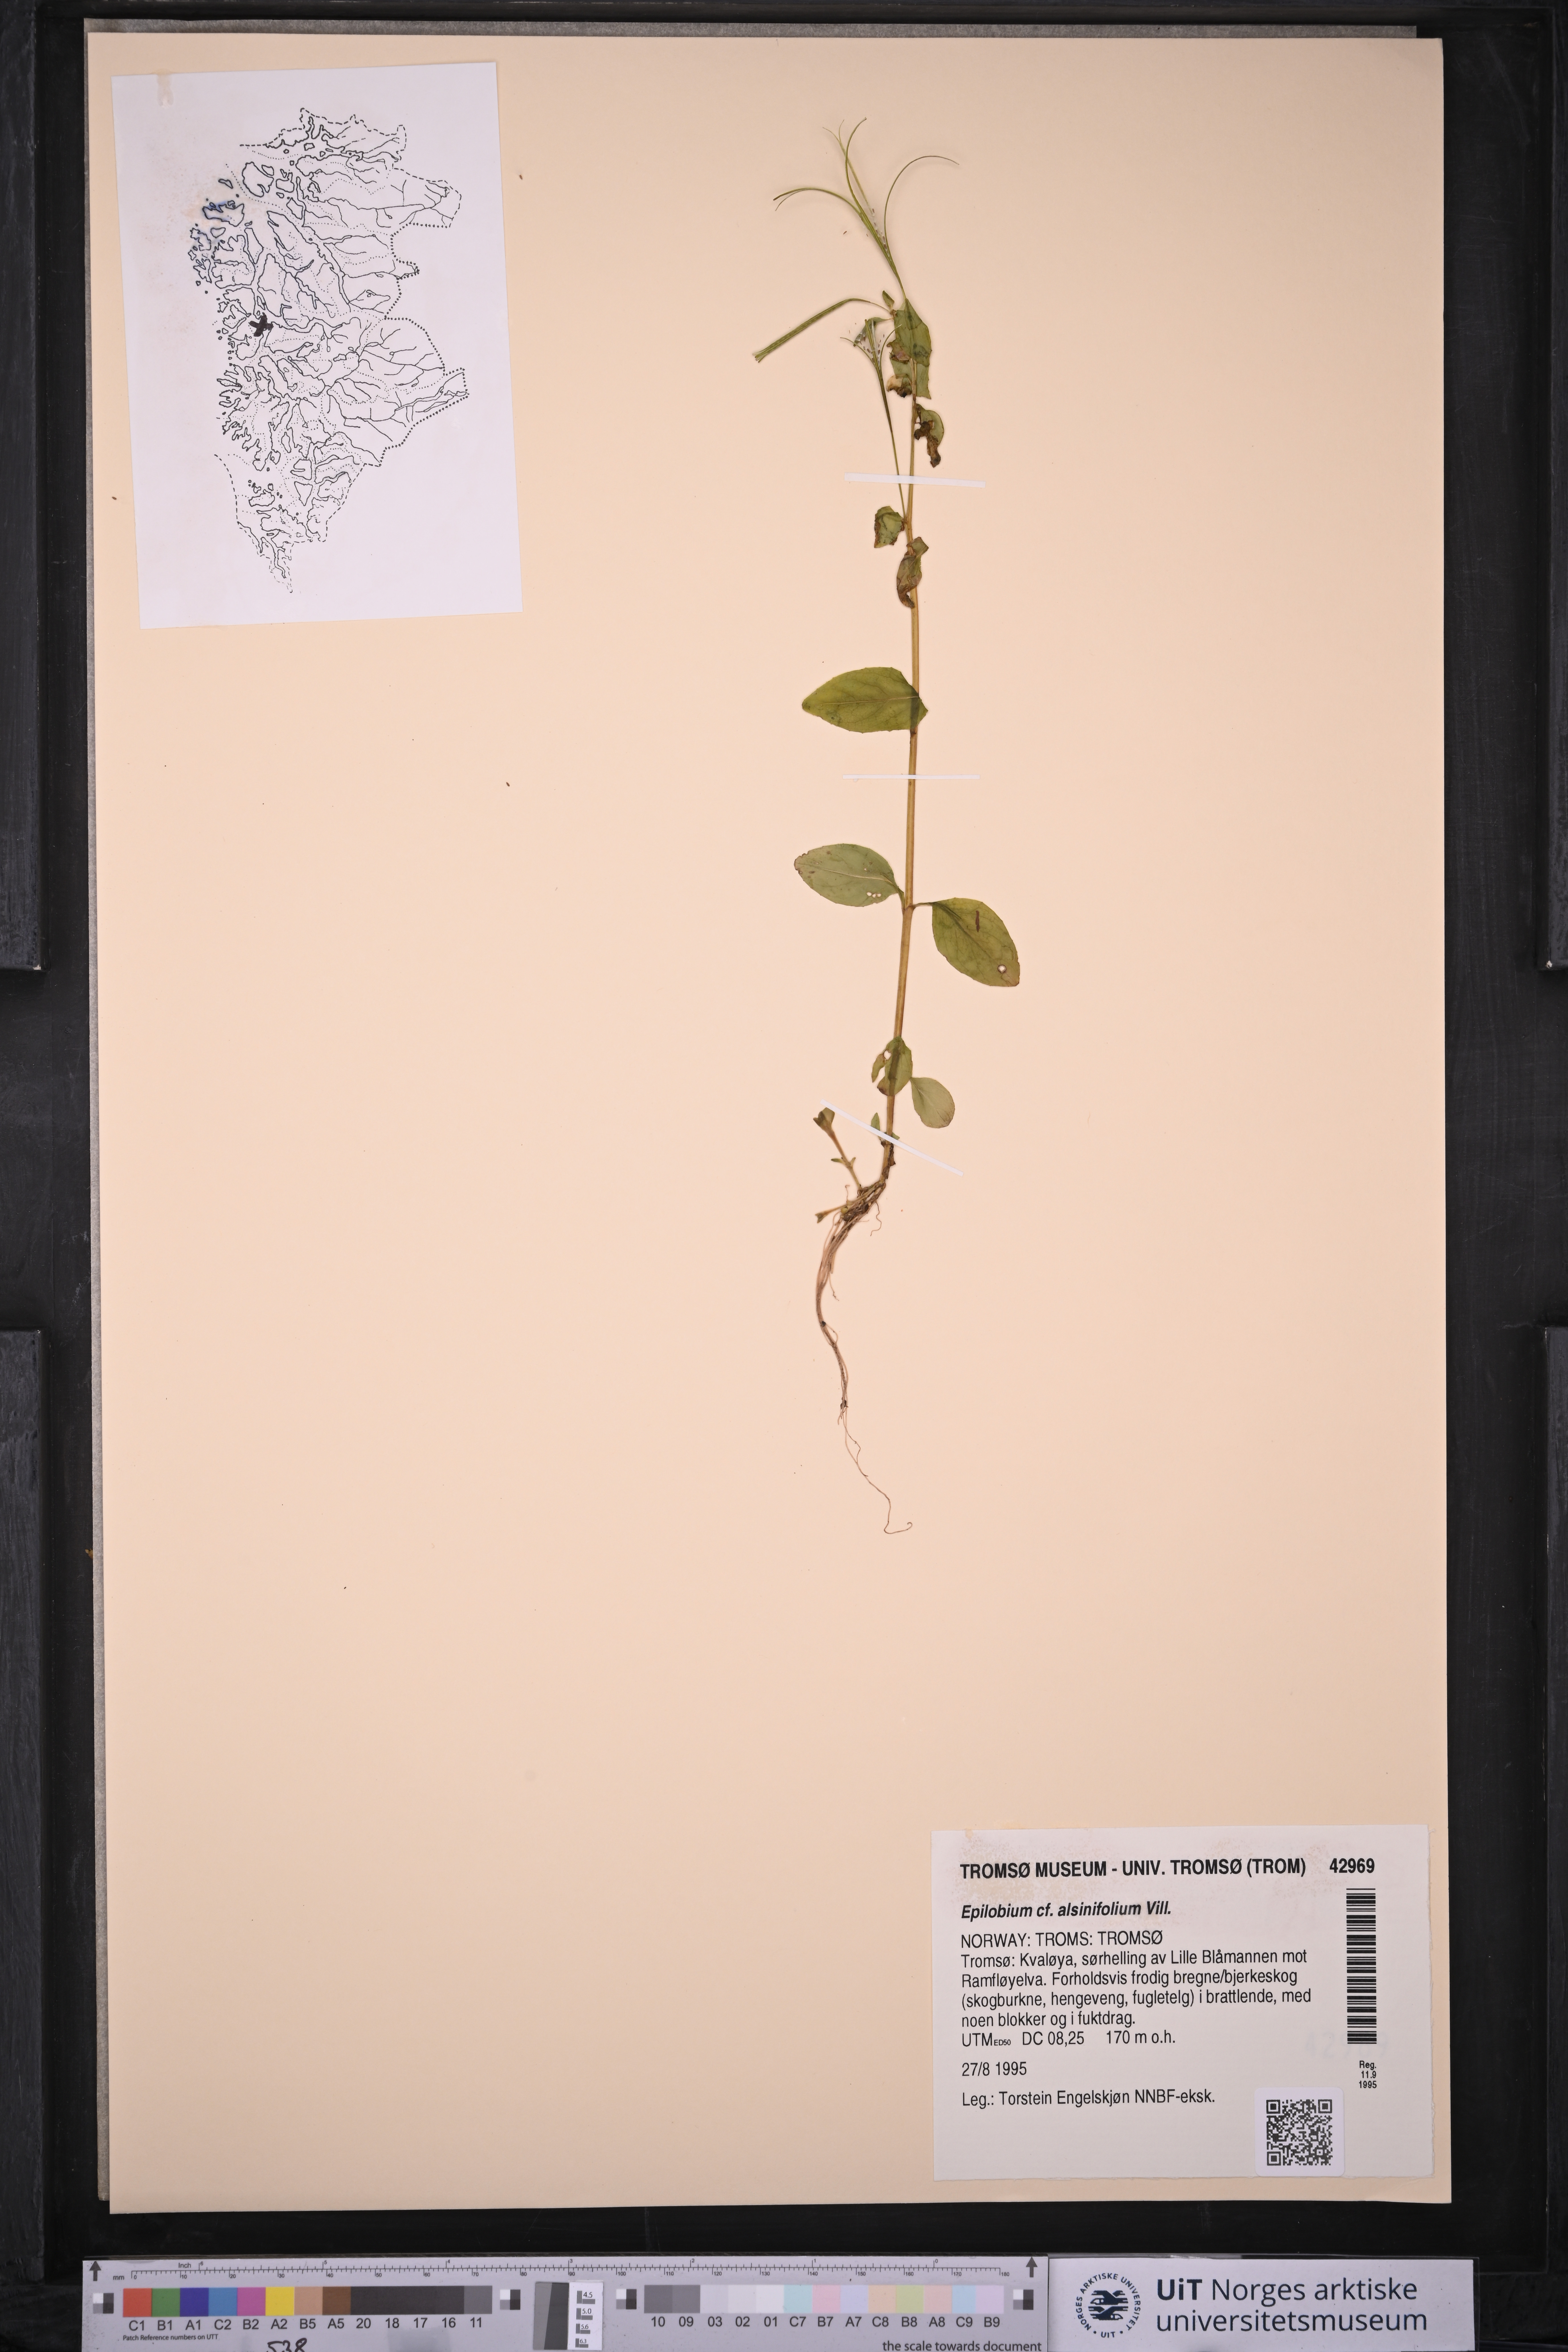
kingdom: Plantae
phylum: Tracheophyta
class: Magnoliopsida
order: Myrtales
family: Onagraceae
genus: Epilobium
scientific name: Epilobium alsinifolium
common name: Chickweed willowherb
